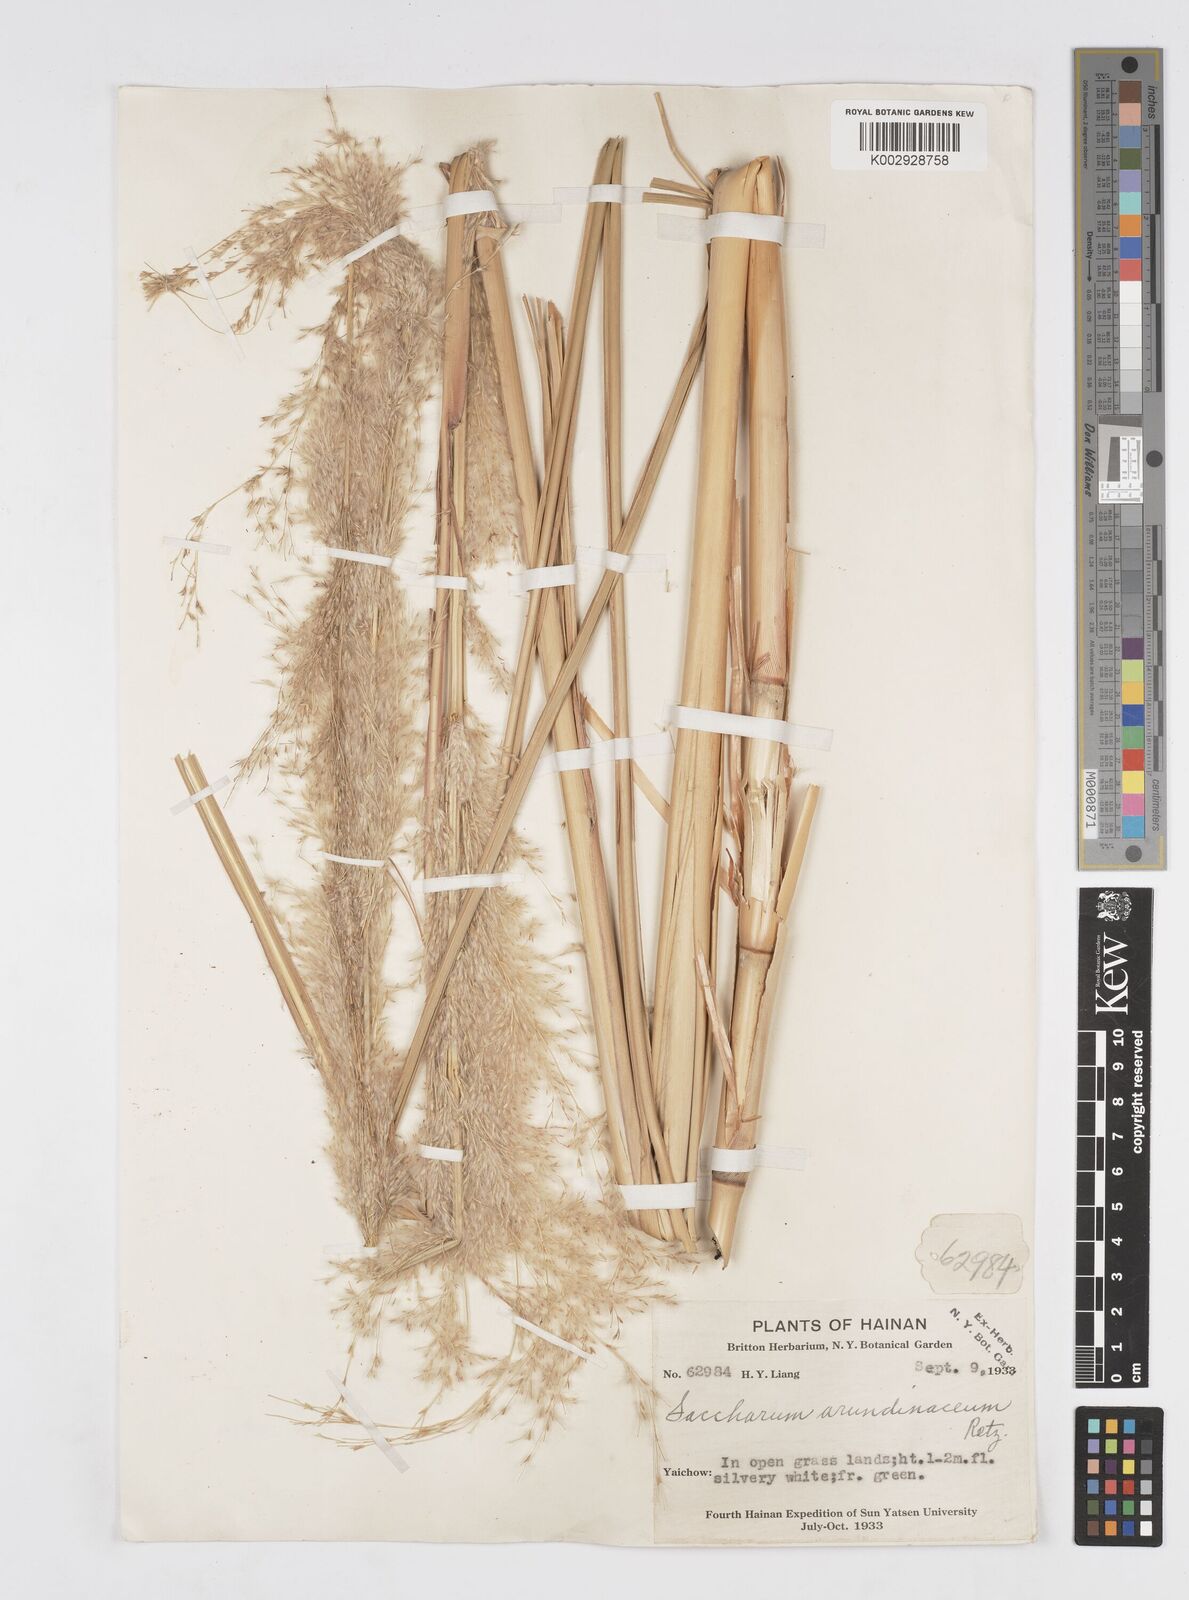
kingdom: Plantae
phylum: Tracheophyta
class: Liliopsida
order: Poales
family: Poaceae
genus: Tripidium
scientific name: Tripidium arundinaceum
